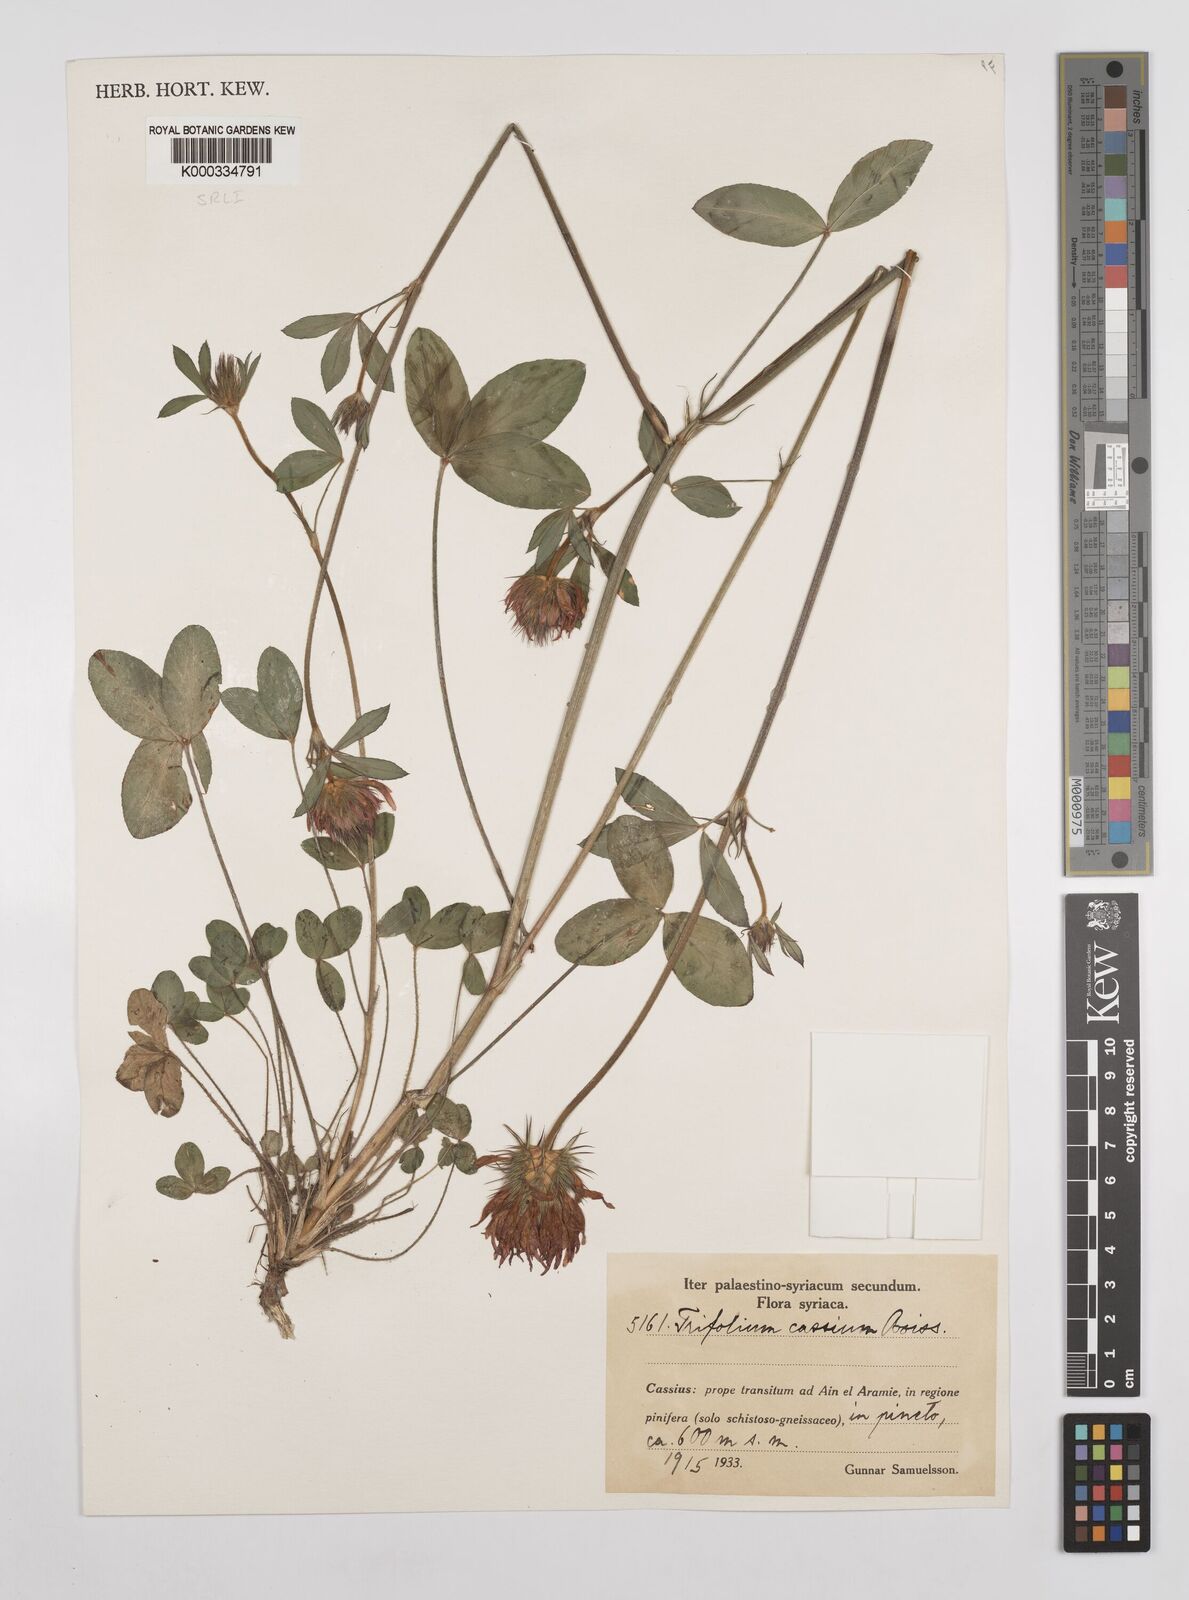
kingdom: Plantae
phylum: Tracheophyta
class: Magnoliopsida
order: Fabales
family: Fabaceae
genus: Trifolium
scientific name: Trifolium ochroleucon
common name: Sulphur clover
